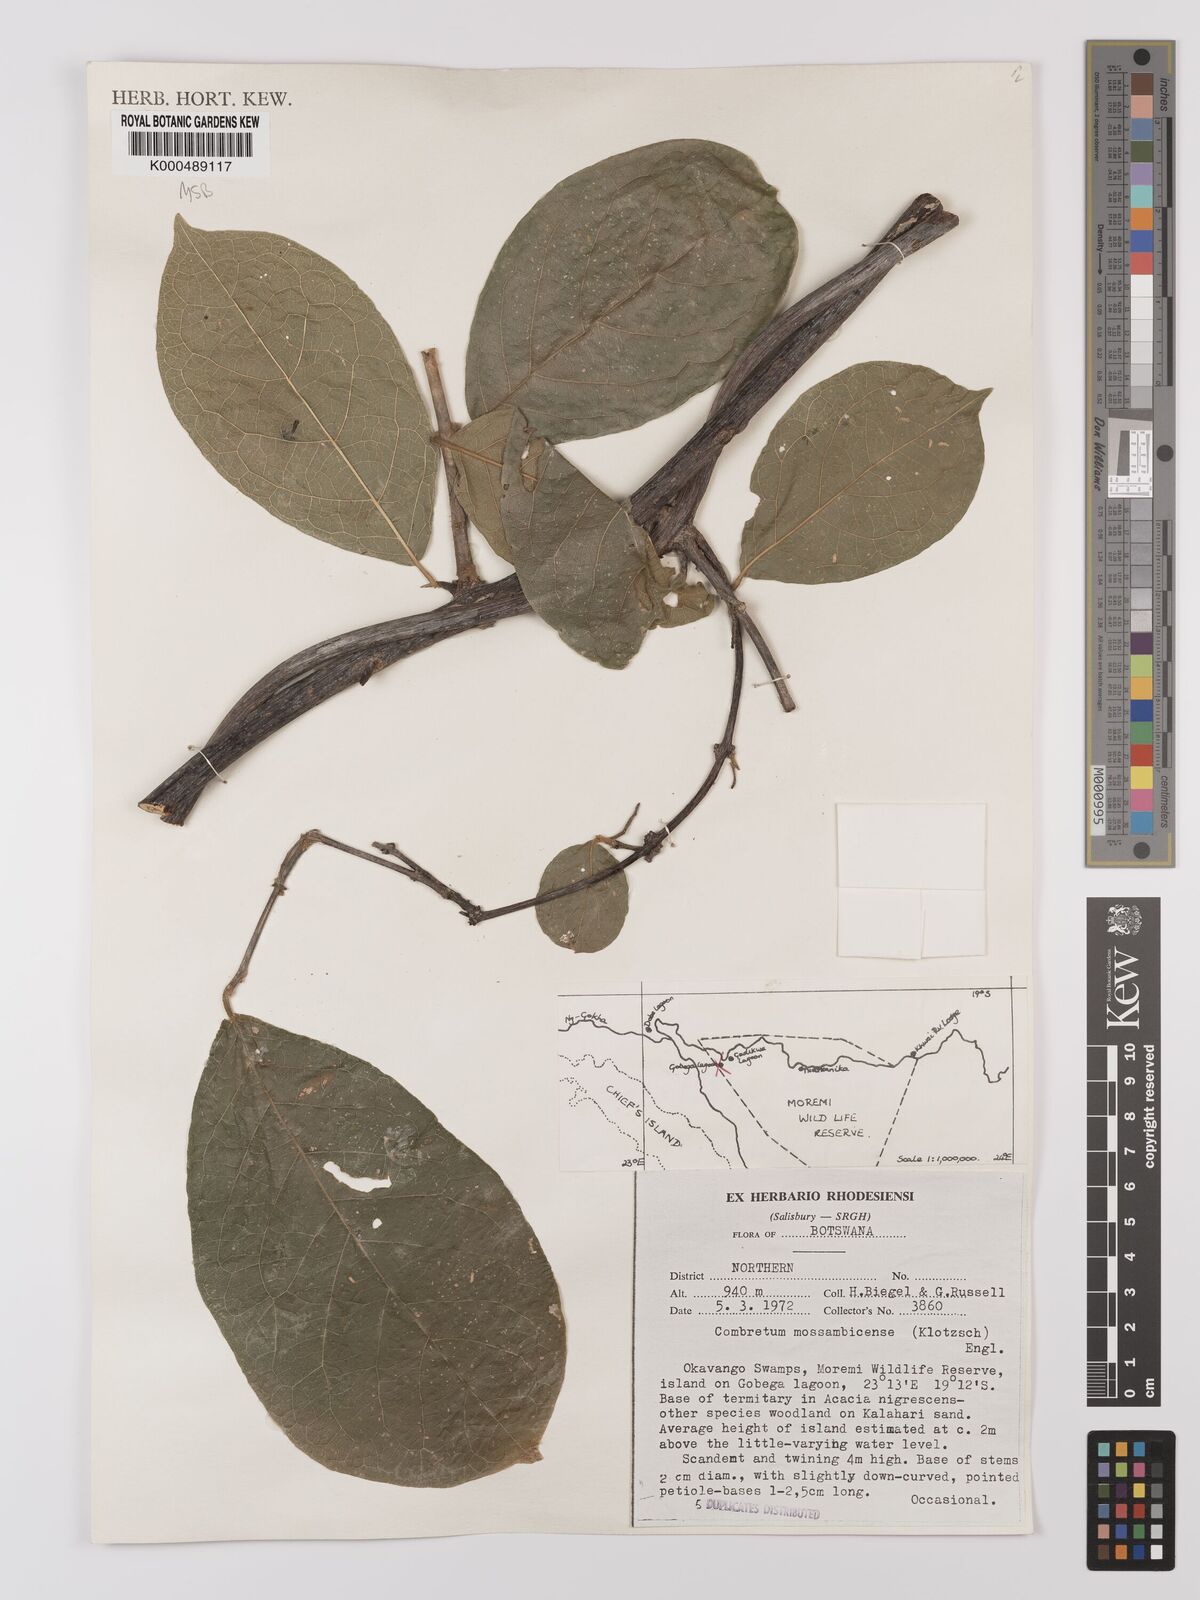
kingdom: Plantae
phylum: Tracheophyta
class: Magnoliopsida
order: Myrtales
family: Combretaceae
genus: Combretum
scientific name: Combretum mossambicense
